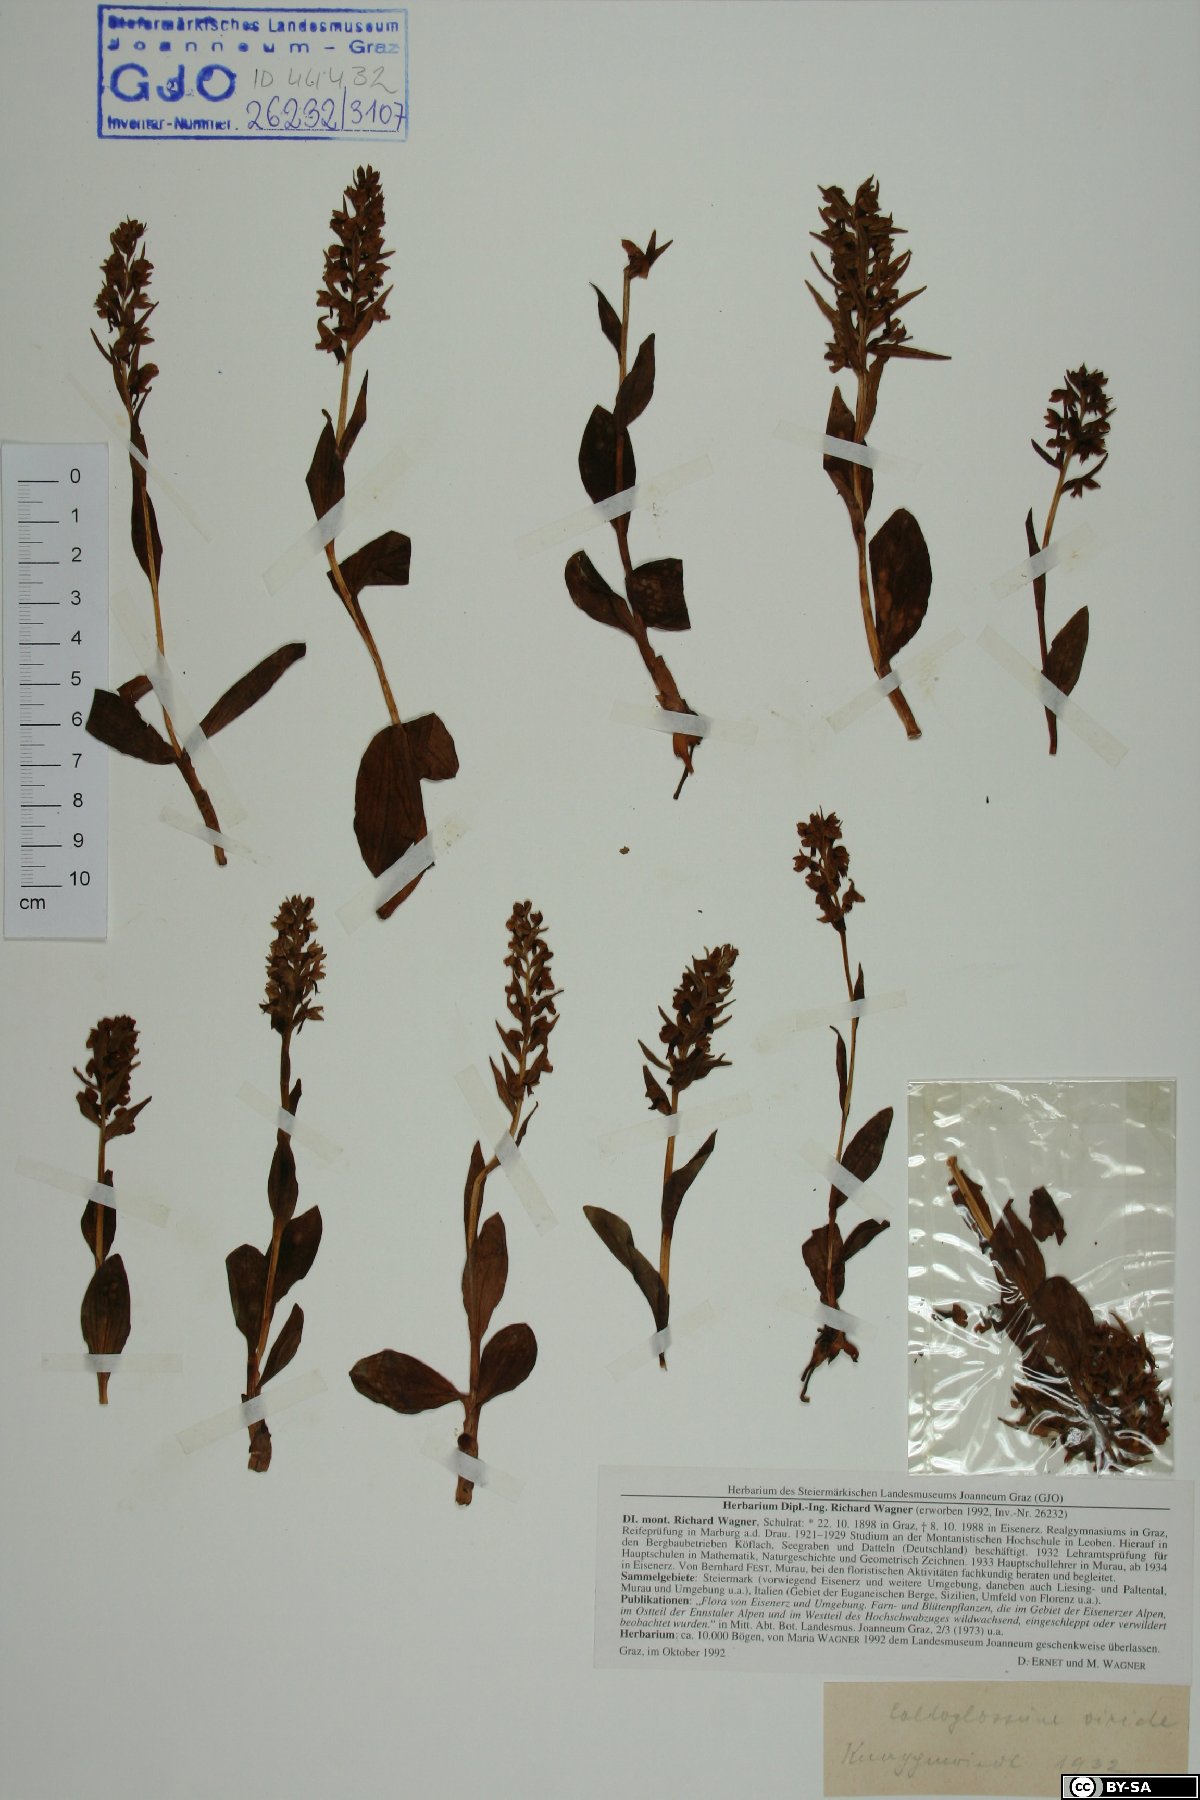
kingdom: Plantae
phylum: Tracheophyta
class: Liliopsida
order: Asparagales
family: Orchidaceae
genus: Dactylorhiza
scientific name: Dactylorhiza viridis
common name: Longbract frog orchid
